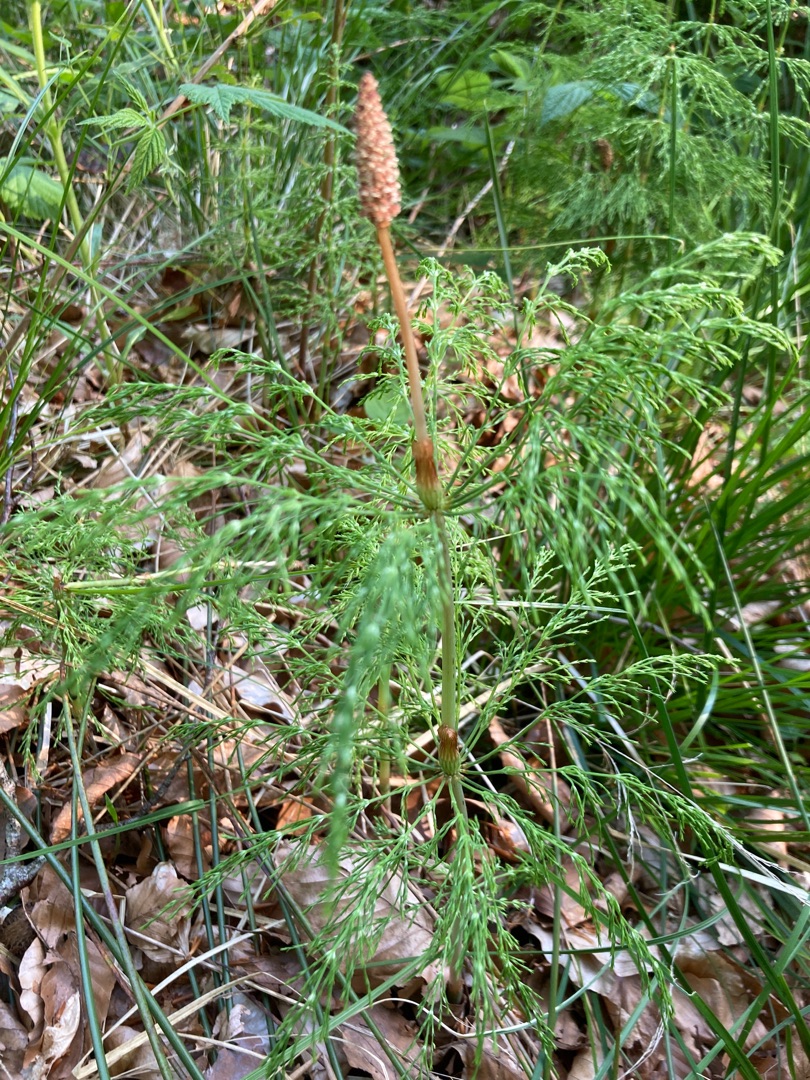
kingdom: Plantae
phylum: Tracheophyta
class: Polypodiopsida
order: Equisetales
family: Equisetaceae
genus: Equisetum
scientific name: Equisetum sylvaticum
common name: Skov-padderok
